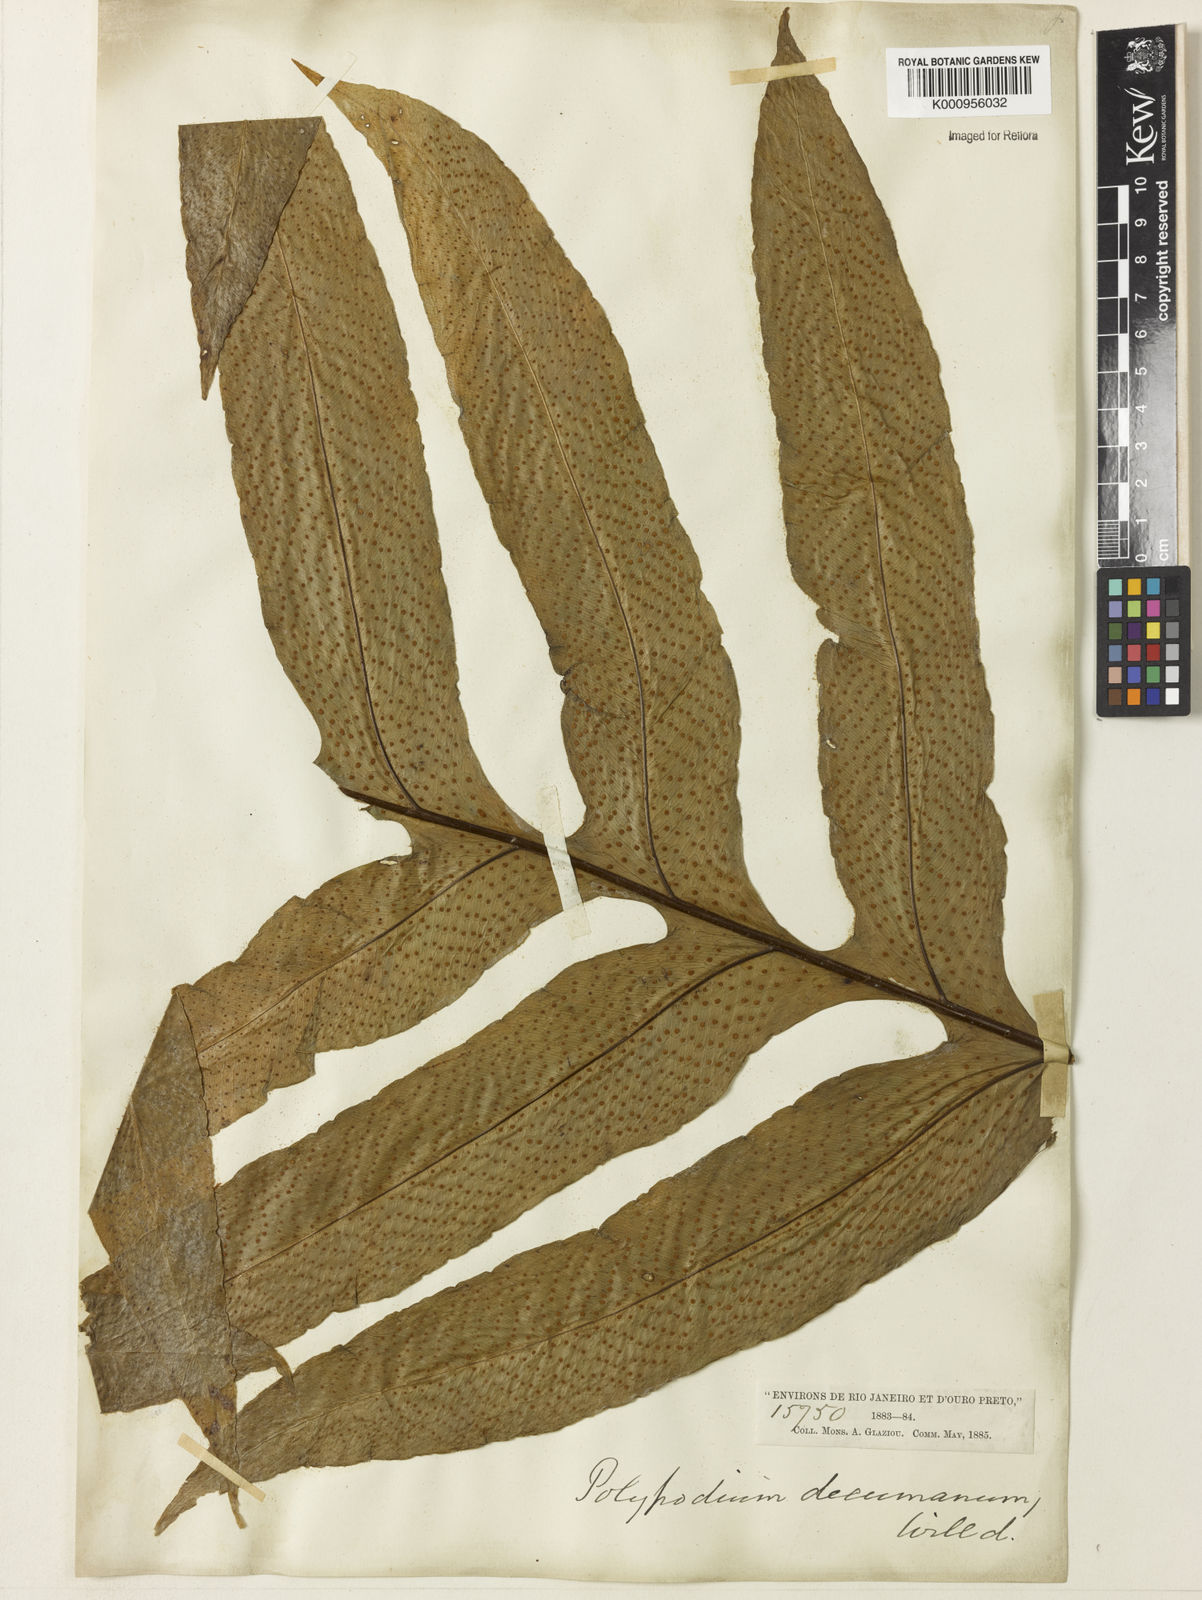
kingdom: Plantae
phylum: Tracheophyta
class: Polypodiopsida
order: Polypodiales
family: Polypodiaceae
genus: Phlebodium
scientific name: Phlebodium decumanum
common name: Golden polypod
